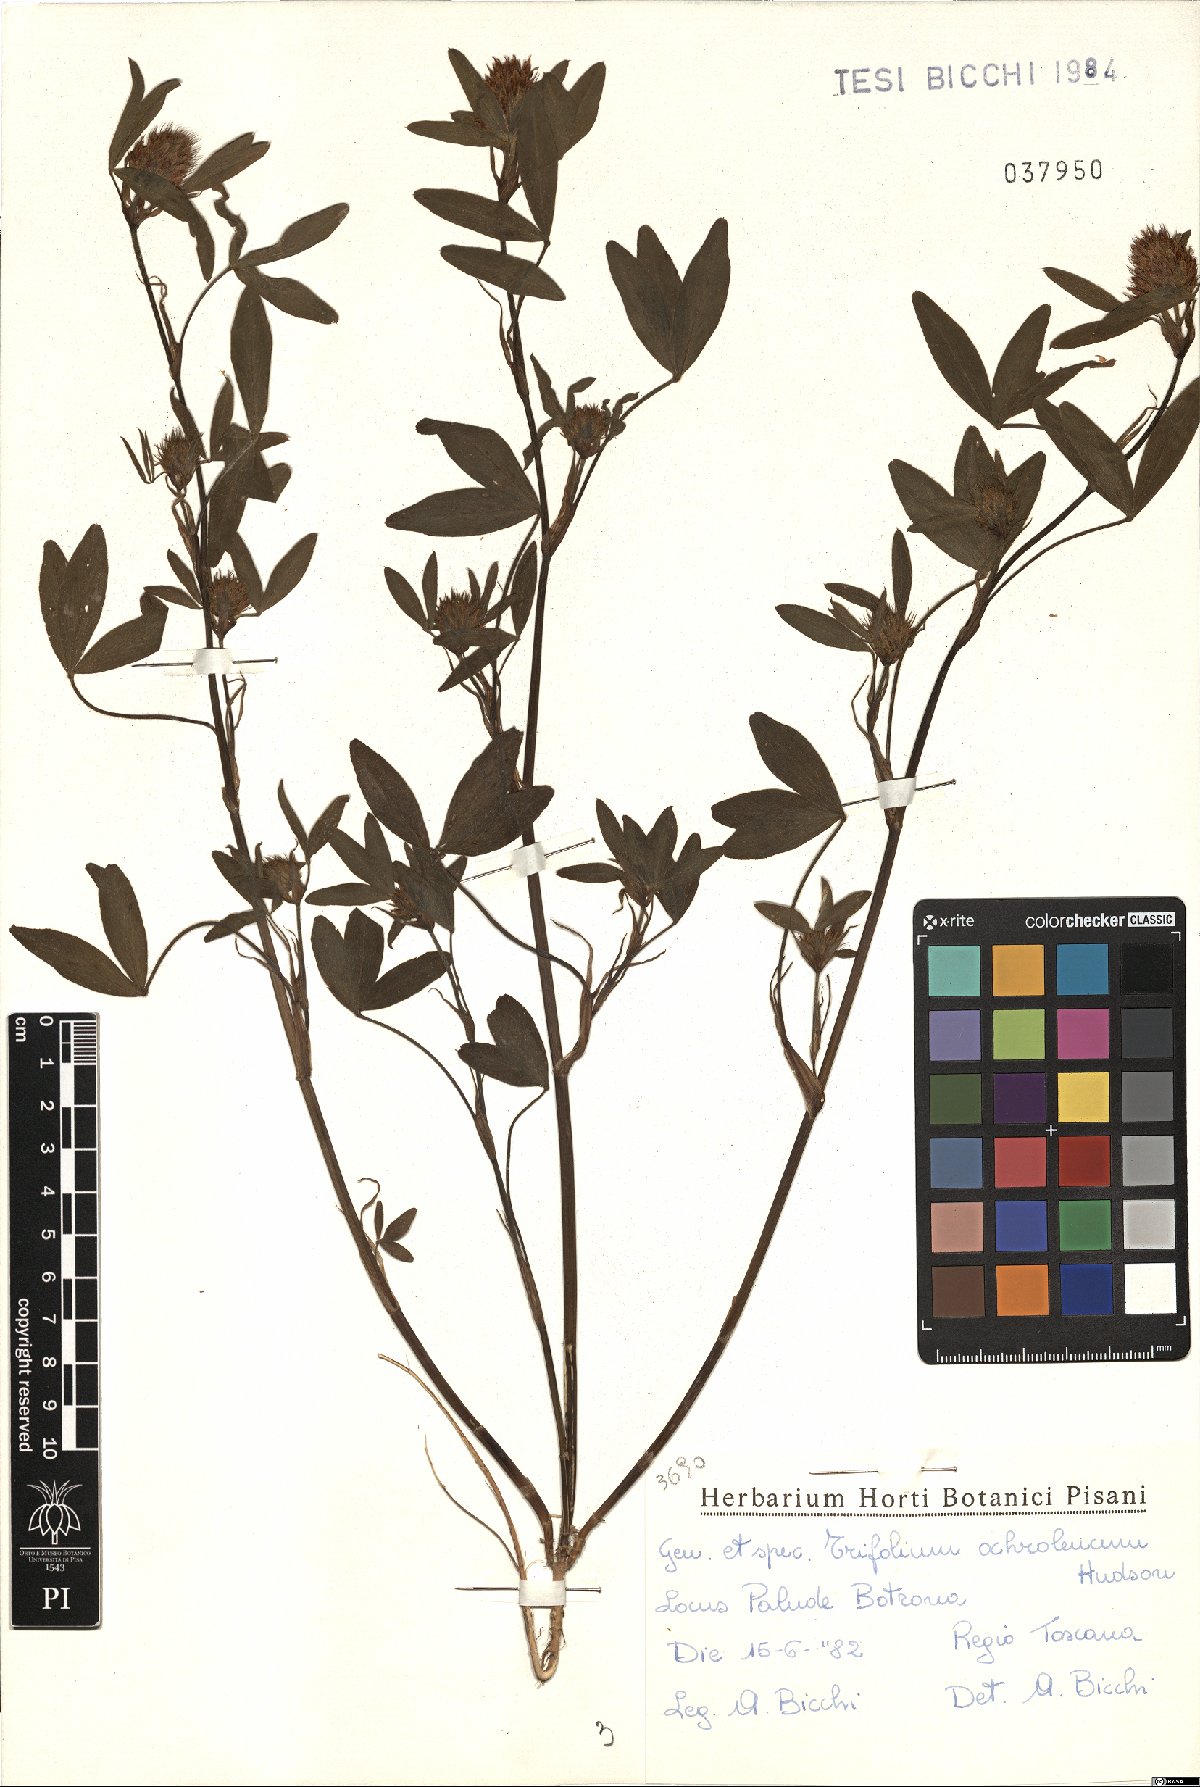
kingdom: Plantae
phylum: Tracheophyta
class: Magnoliopsida
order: Fabales
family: Fabaceae
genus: Trifolium
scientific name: Trifolium ochroleucon
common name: Sulphur clover
